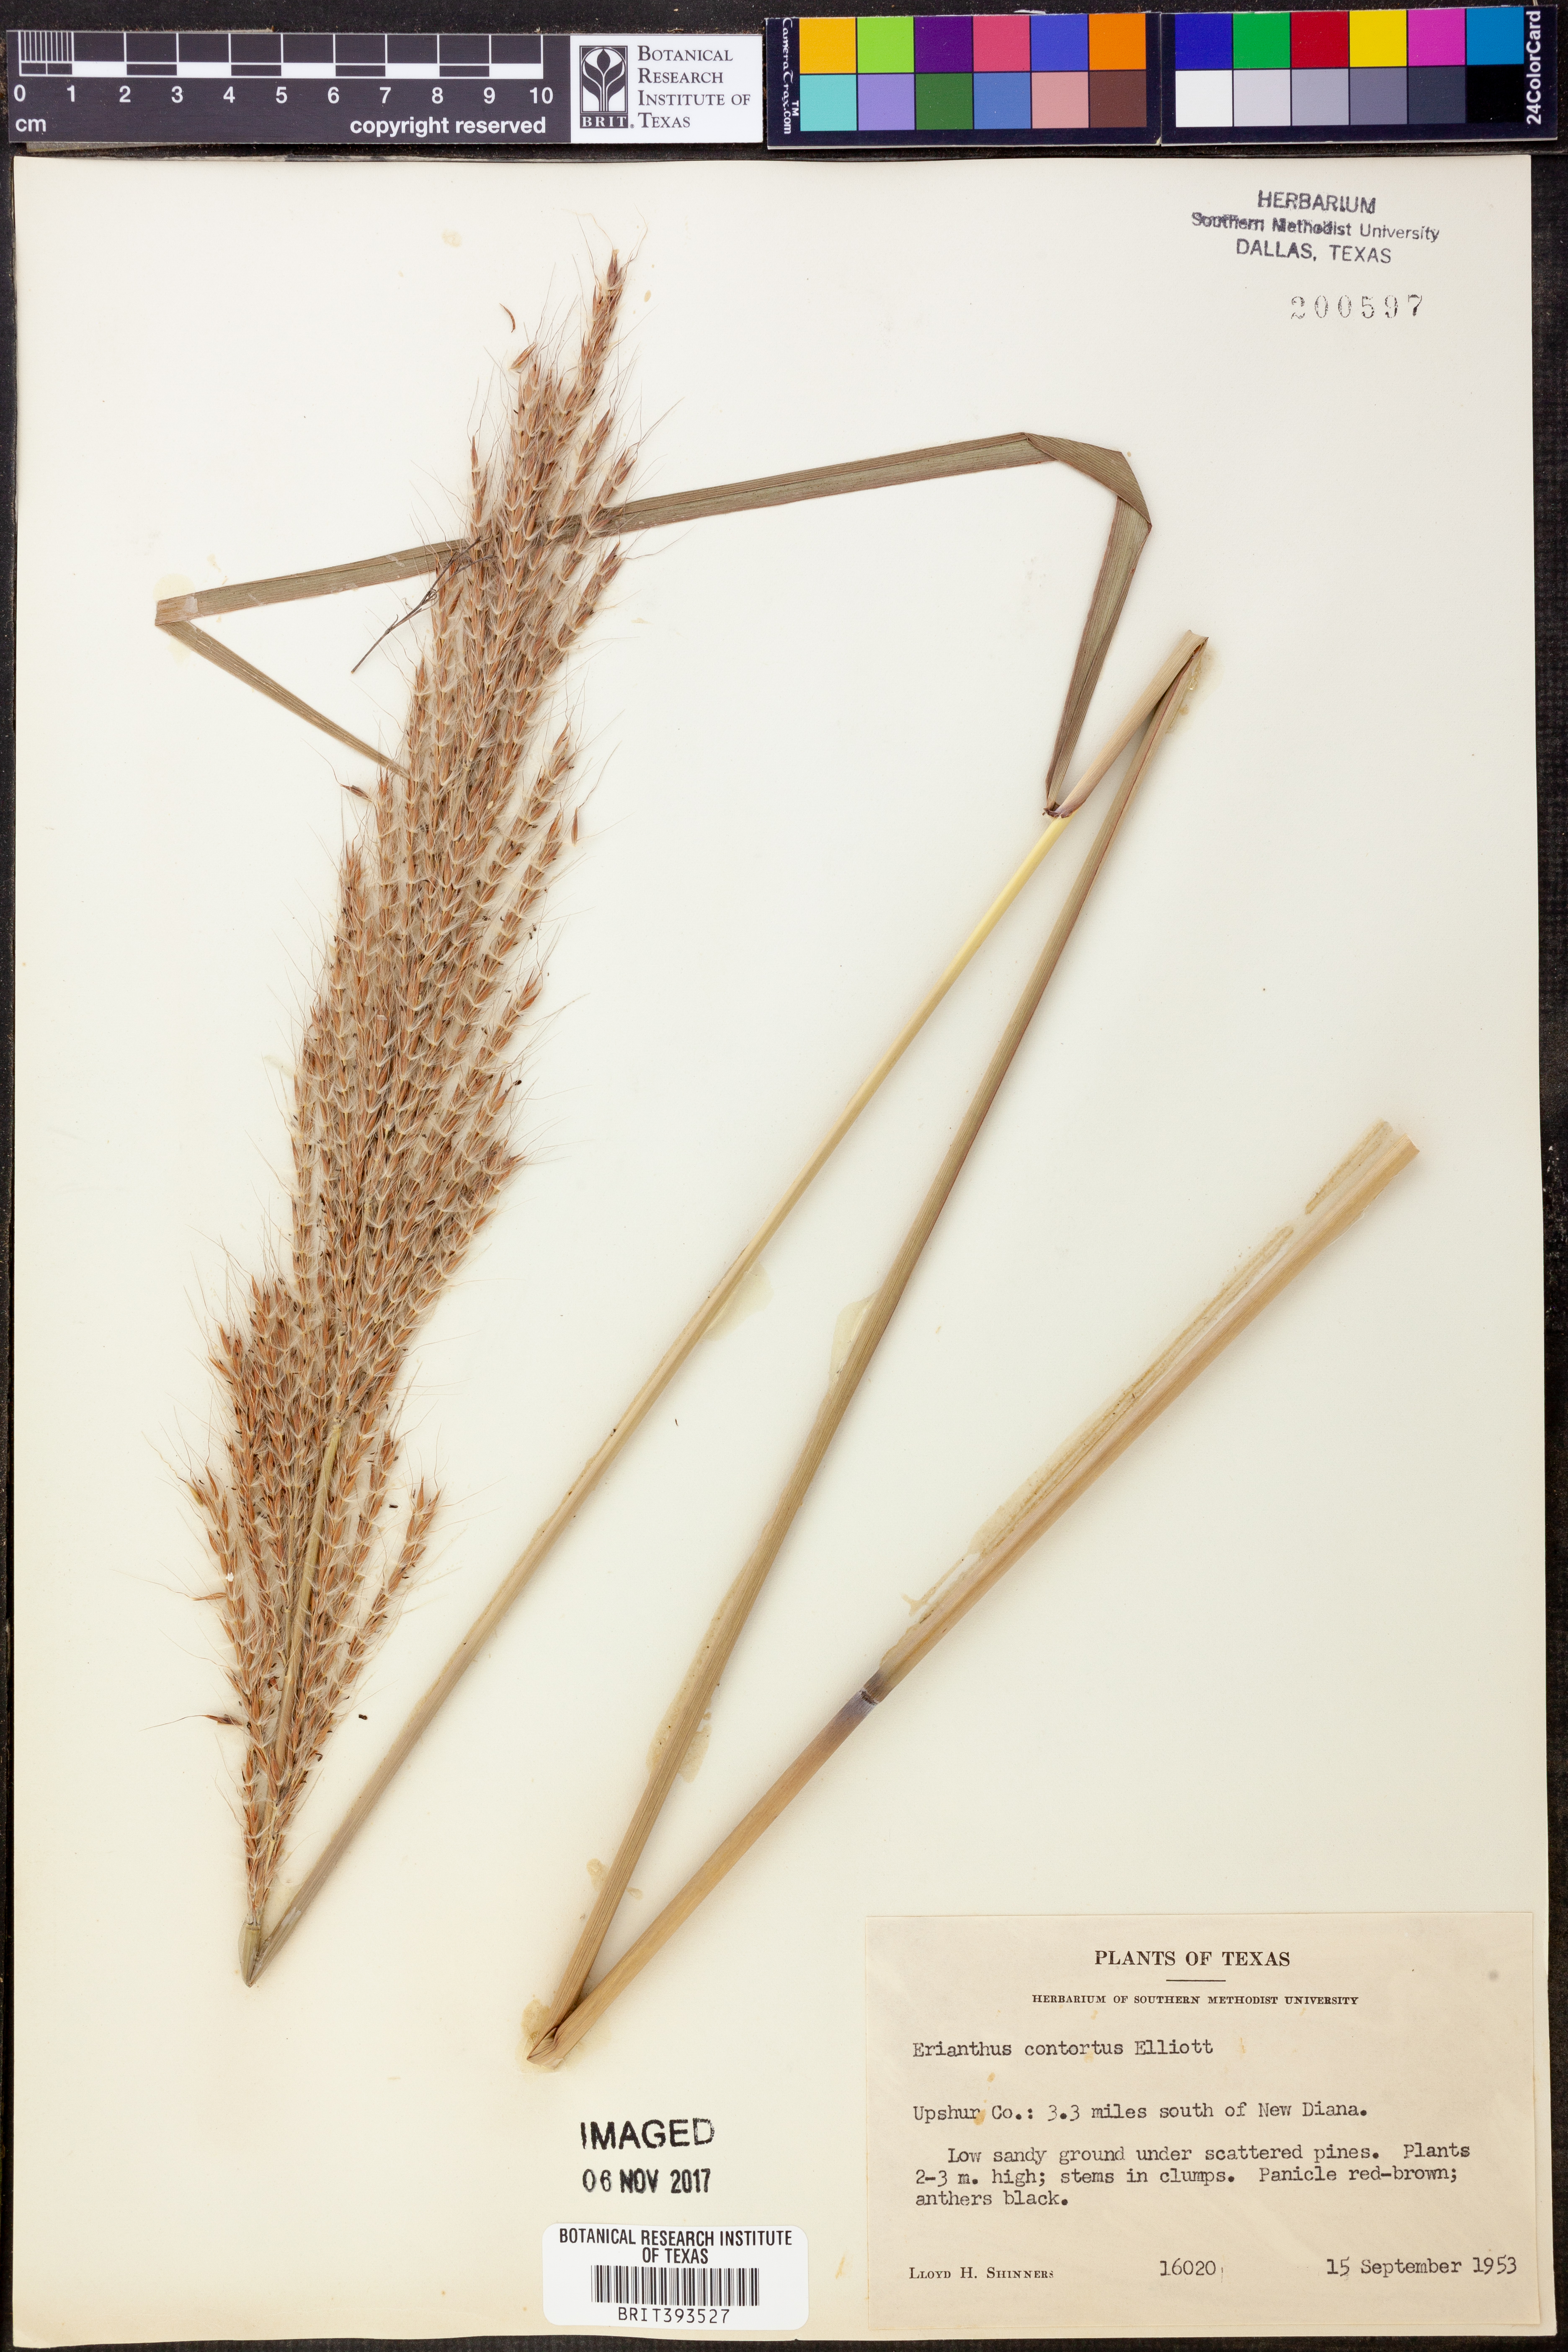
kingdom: Plantae
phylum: Tracheophyta
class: Liliopsida
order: Poales
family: Poaceae
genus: Erianthus
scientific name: Erianthus contortus
